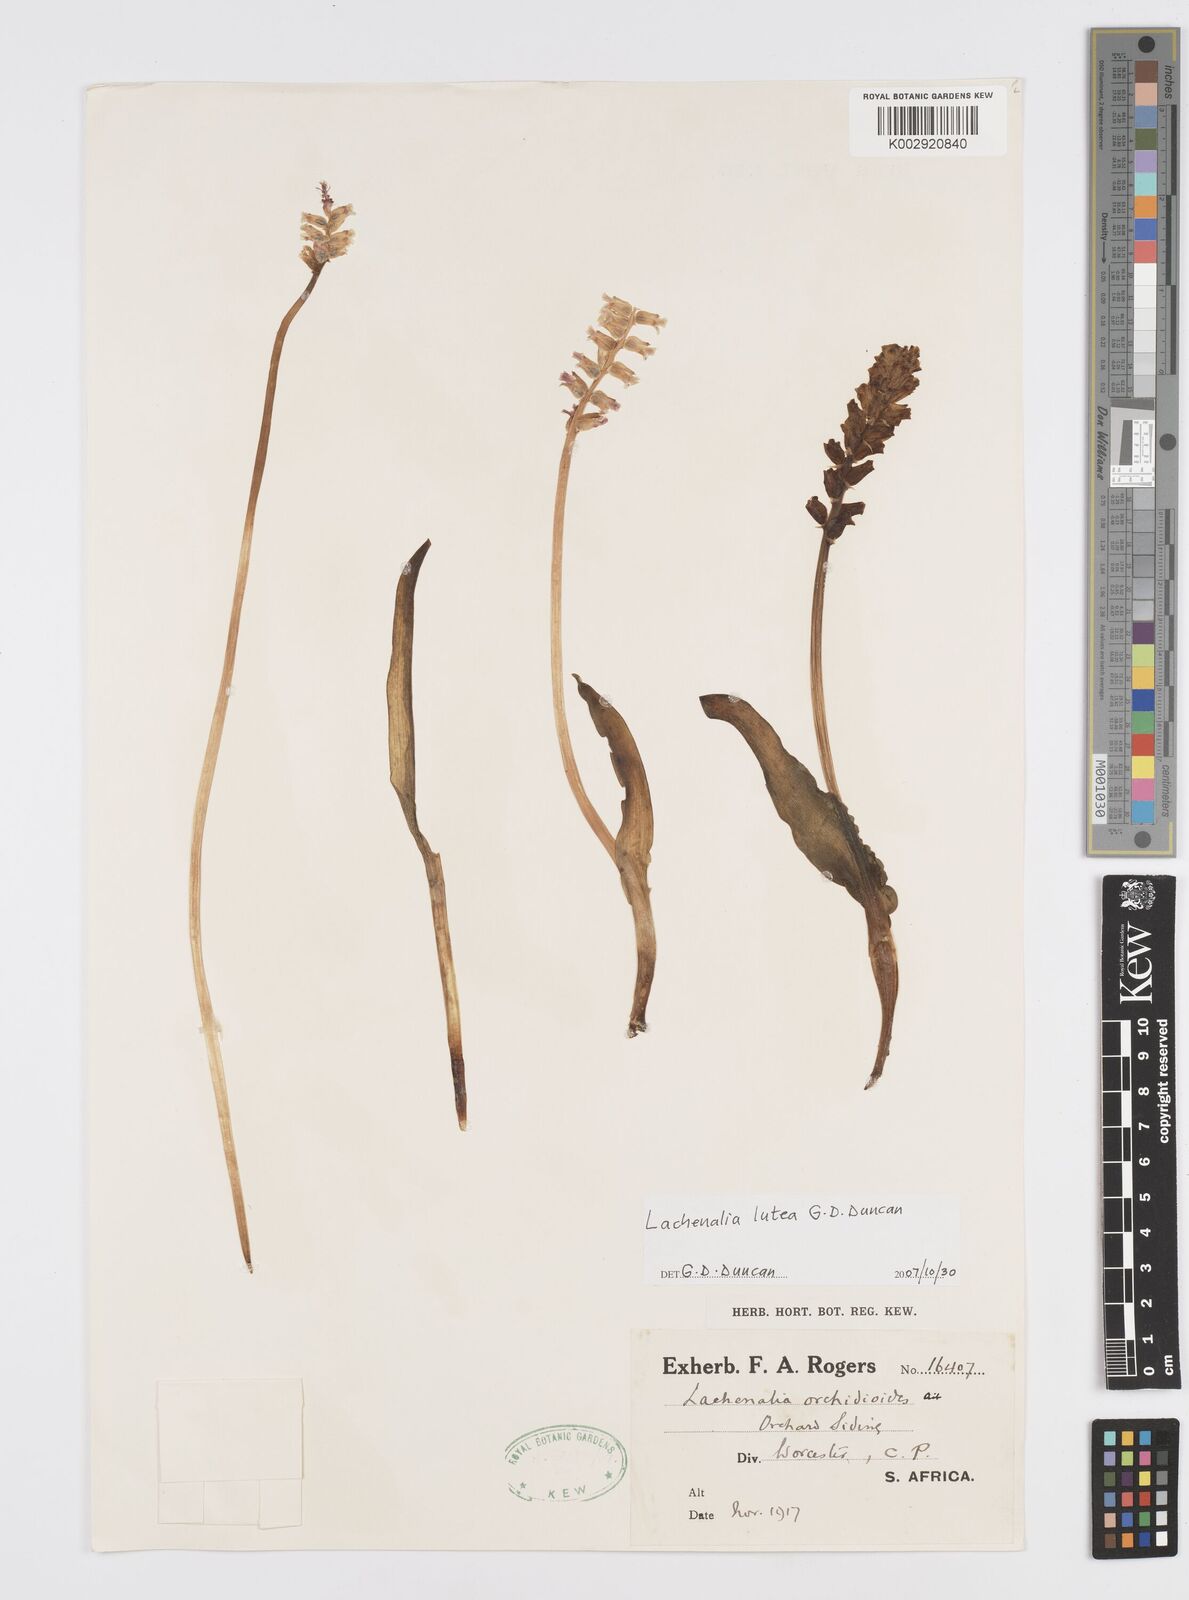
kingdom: Plantae
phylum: Tracheophyta
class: Liliopsida
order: Asparagales
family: Asparagaceae
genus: Lachenalia
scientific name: Lachenalia lutea
